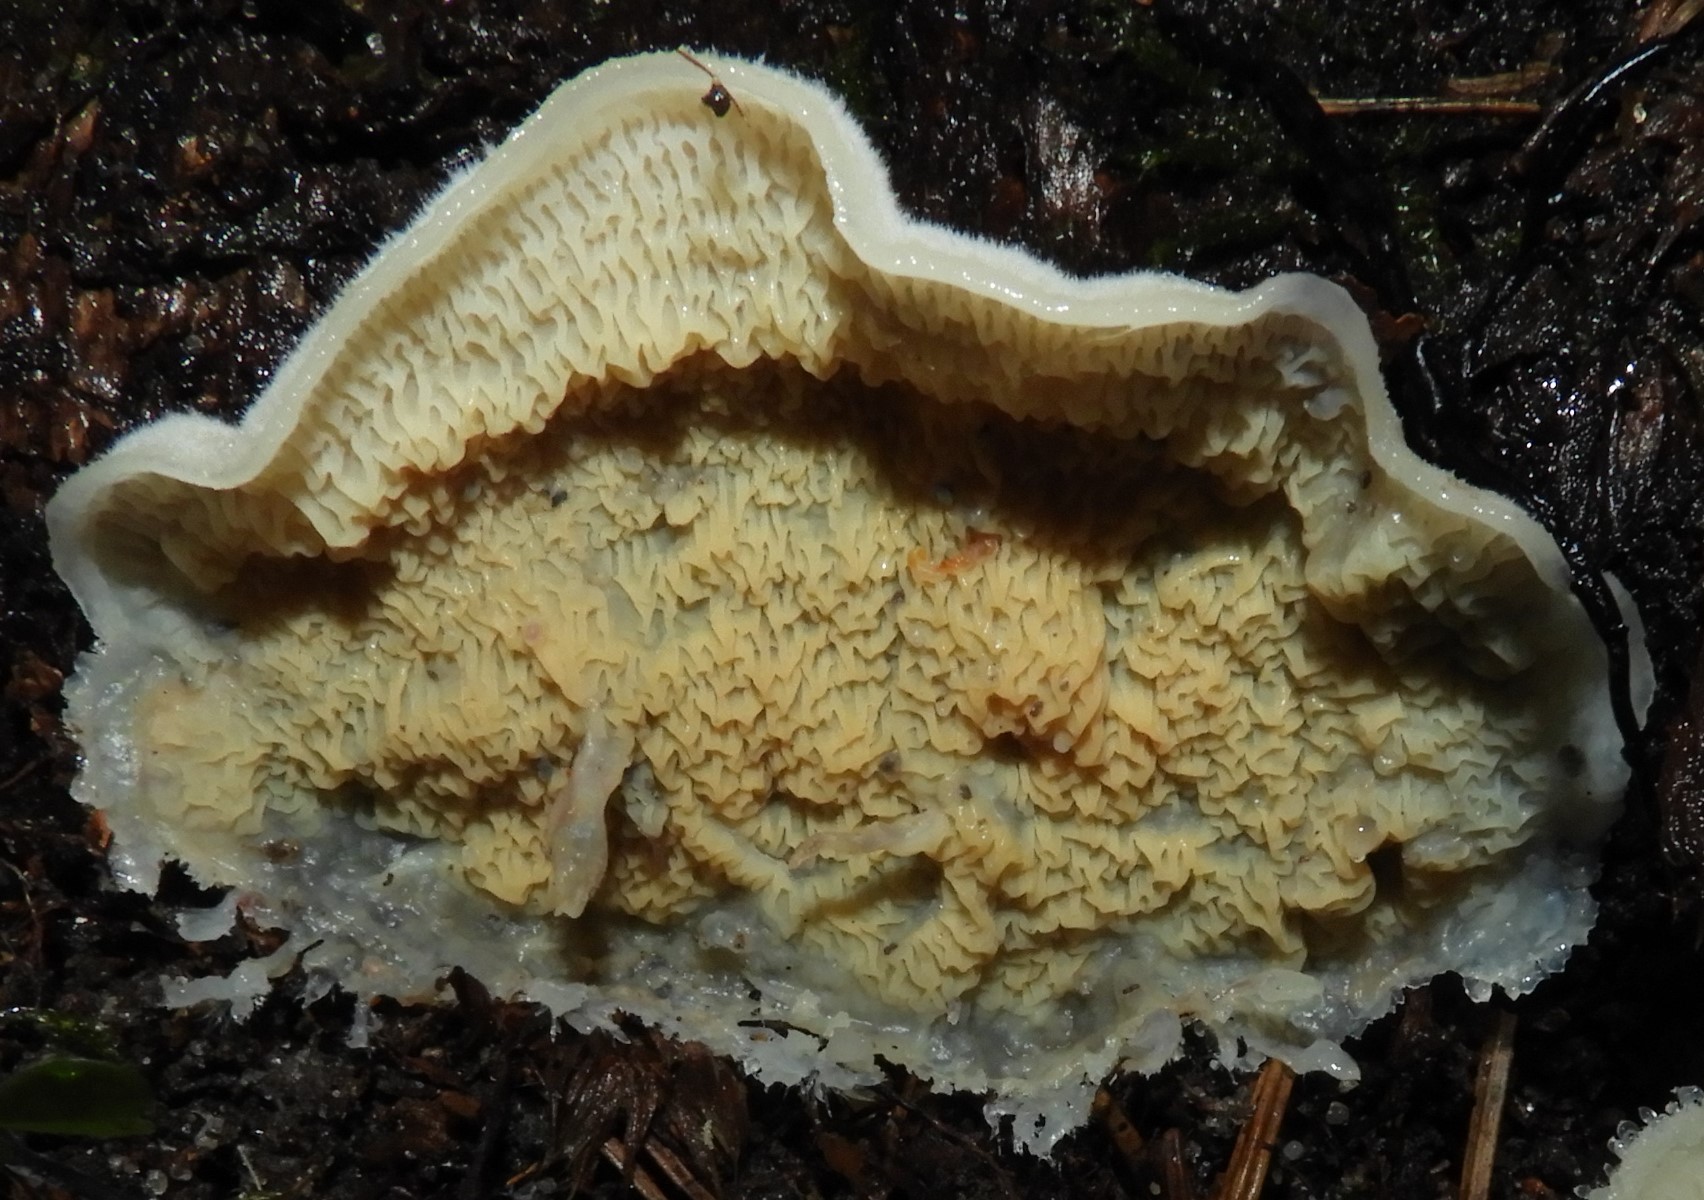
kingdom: Fungi
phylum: Basidiomycota
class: Agaricomycetes
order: Polyporales
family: Meruliaceae
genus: Phlebia
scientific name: Phlebia tremellosa
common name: bævrende åresvamp
